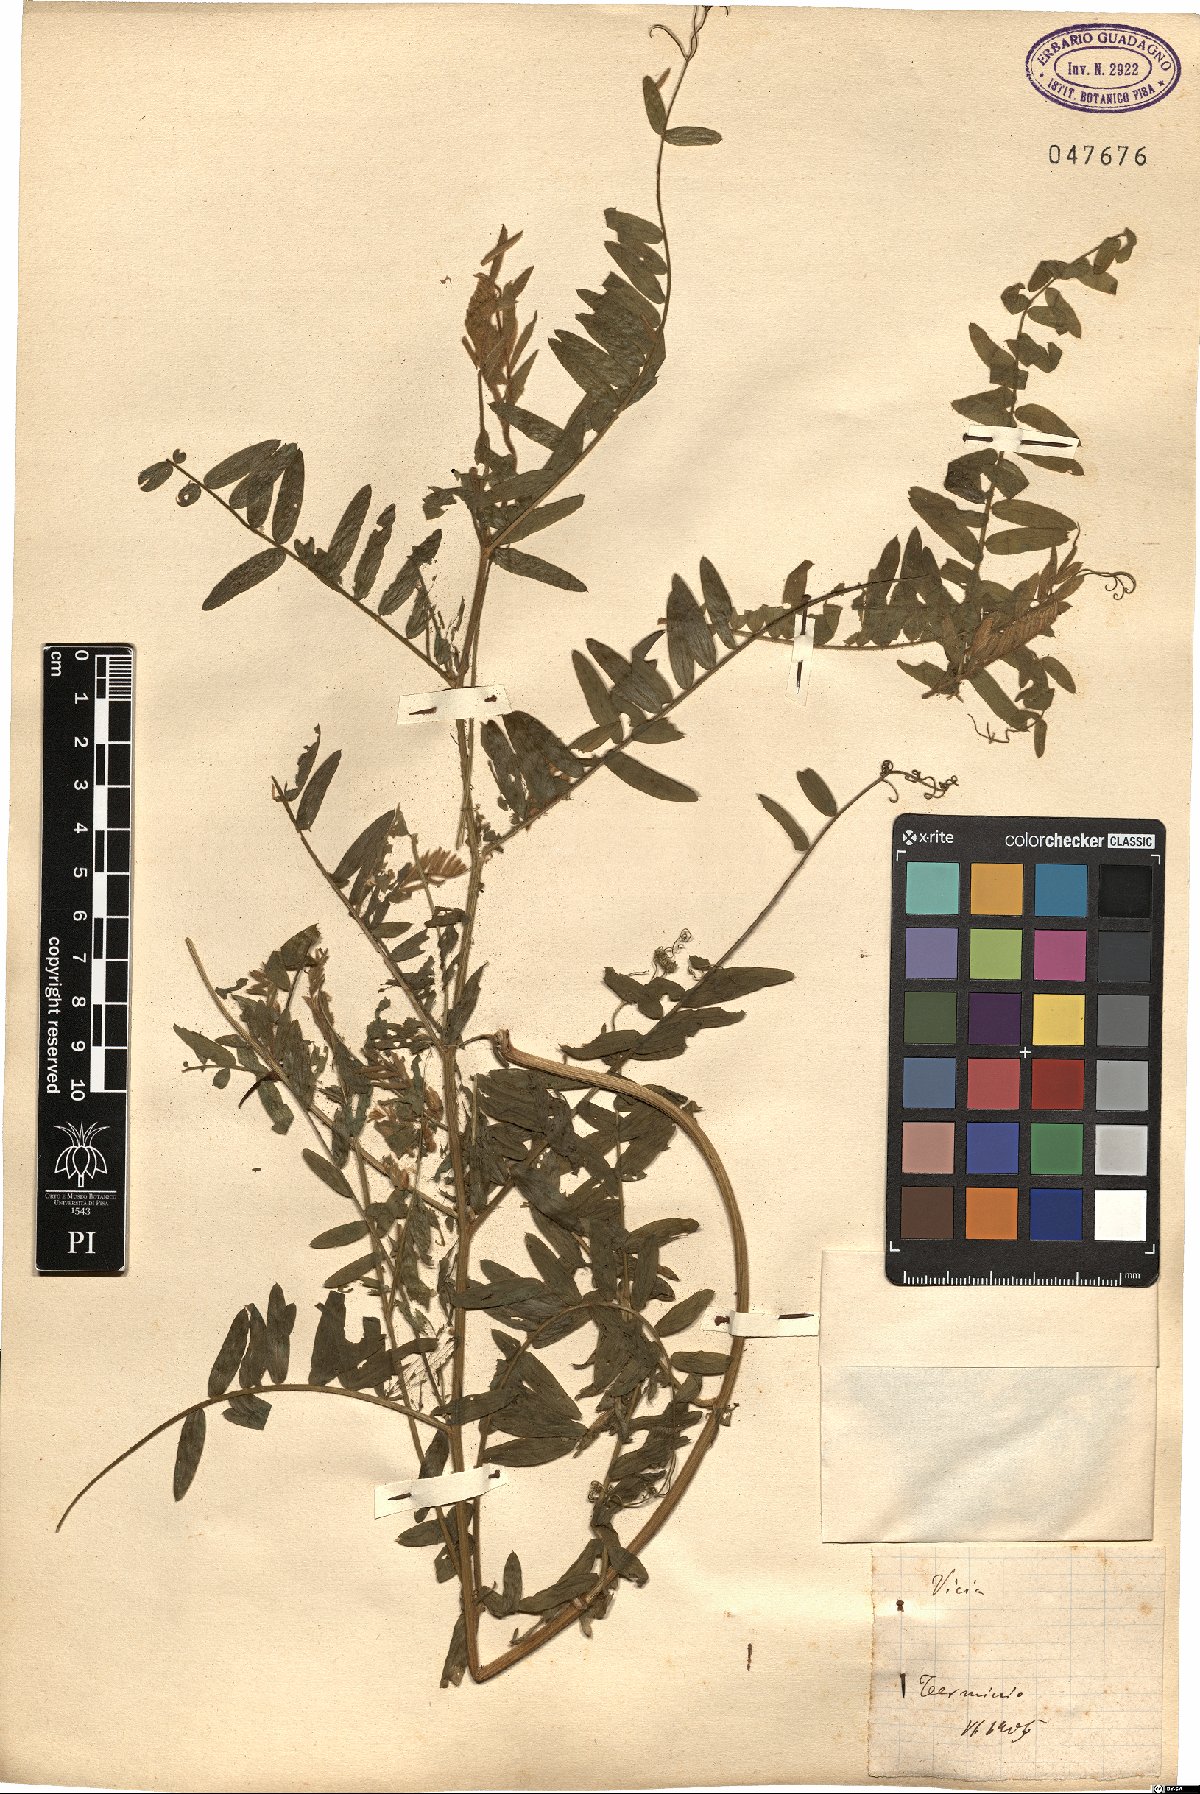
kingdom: Plantae
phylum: Tracheophyta
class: Magnoliopsida
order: Fabales
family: Fabaceae
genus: Vicia
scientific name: Vicia
